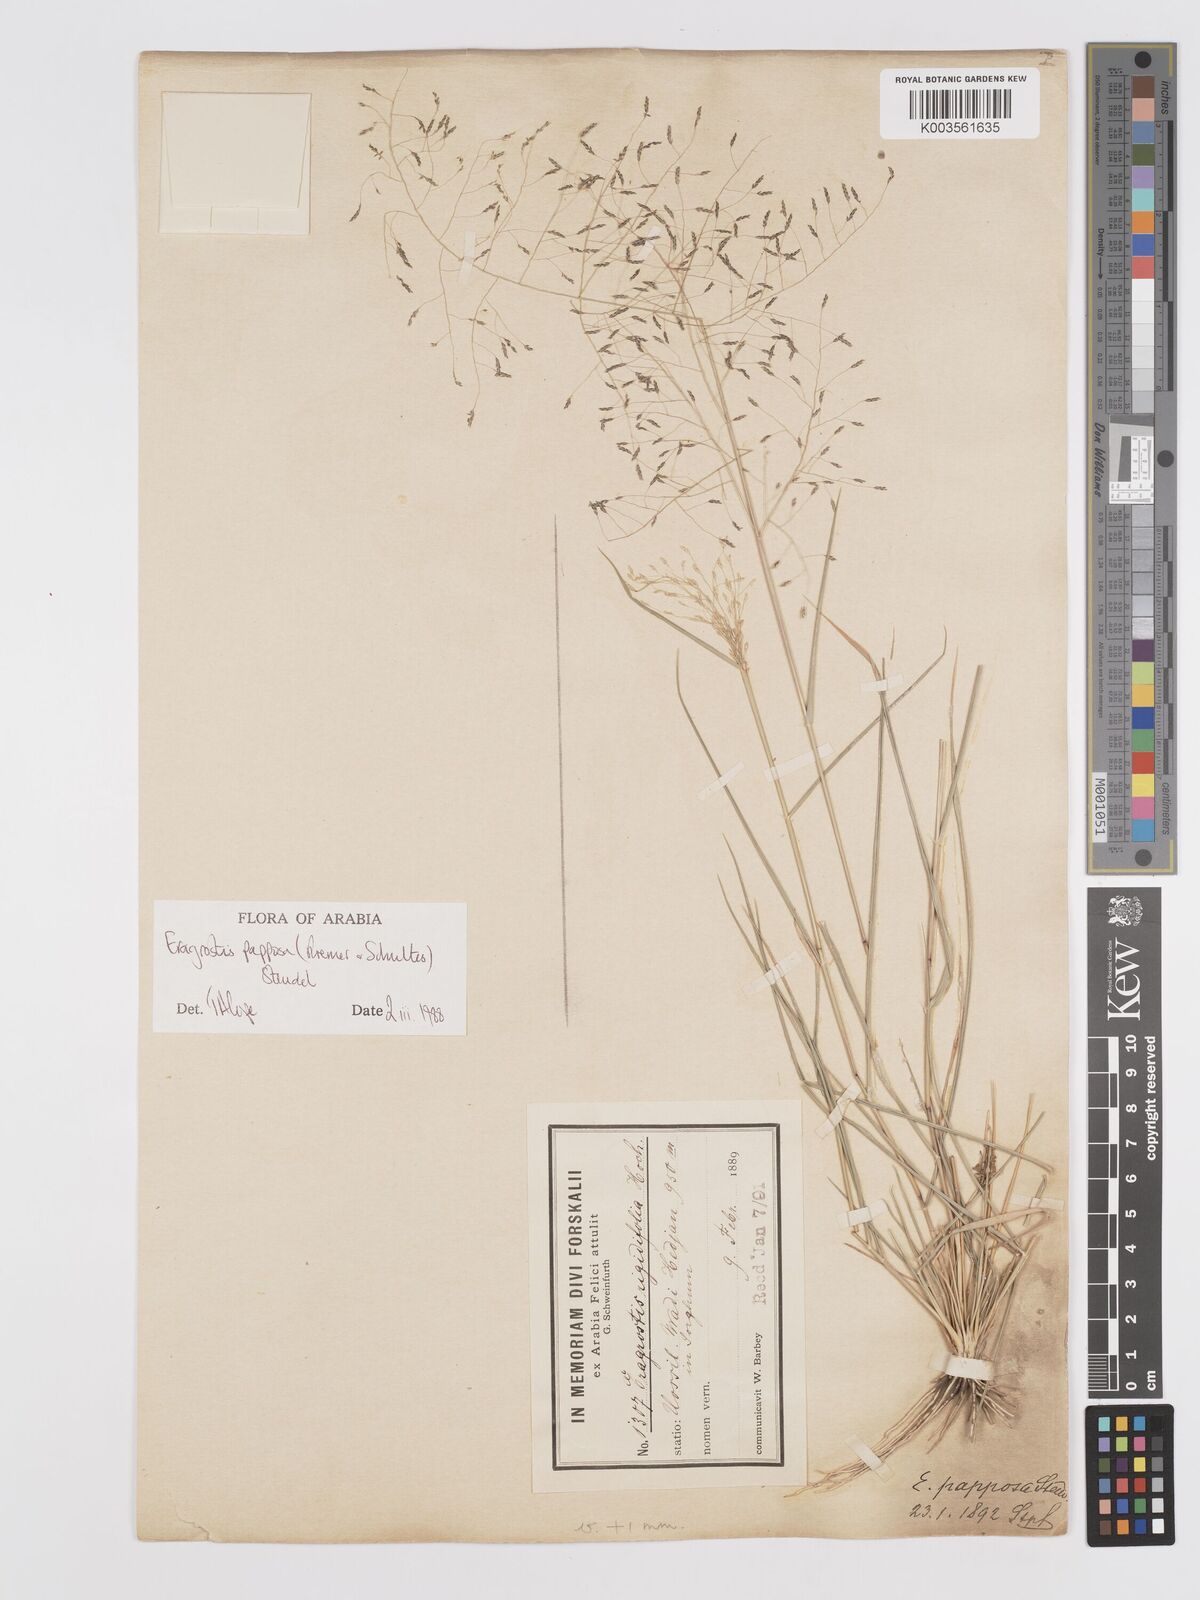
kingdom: Plantae
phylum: Tracheophyta
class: Liliopsida
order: Poales
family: Poaceae
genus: Eragrostis
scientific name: Eragrostis papposa
